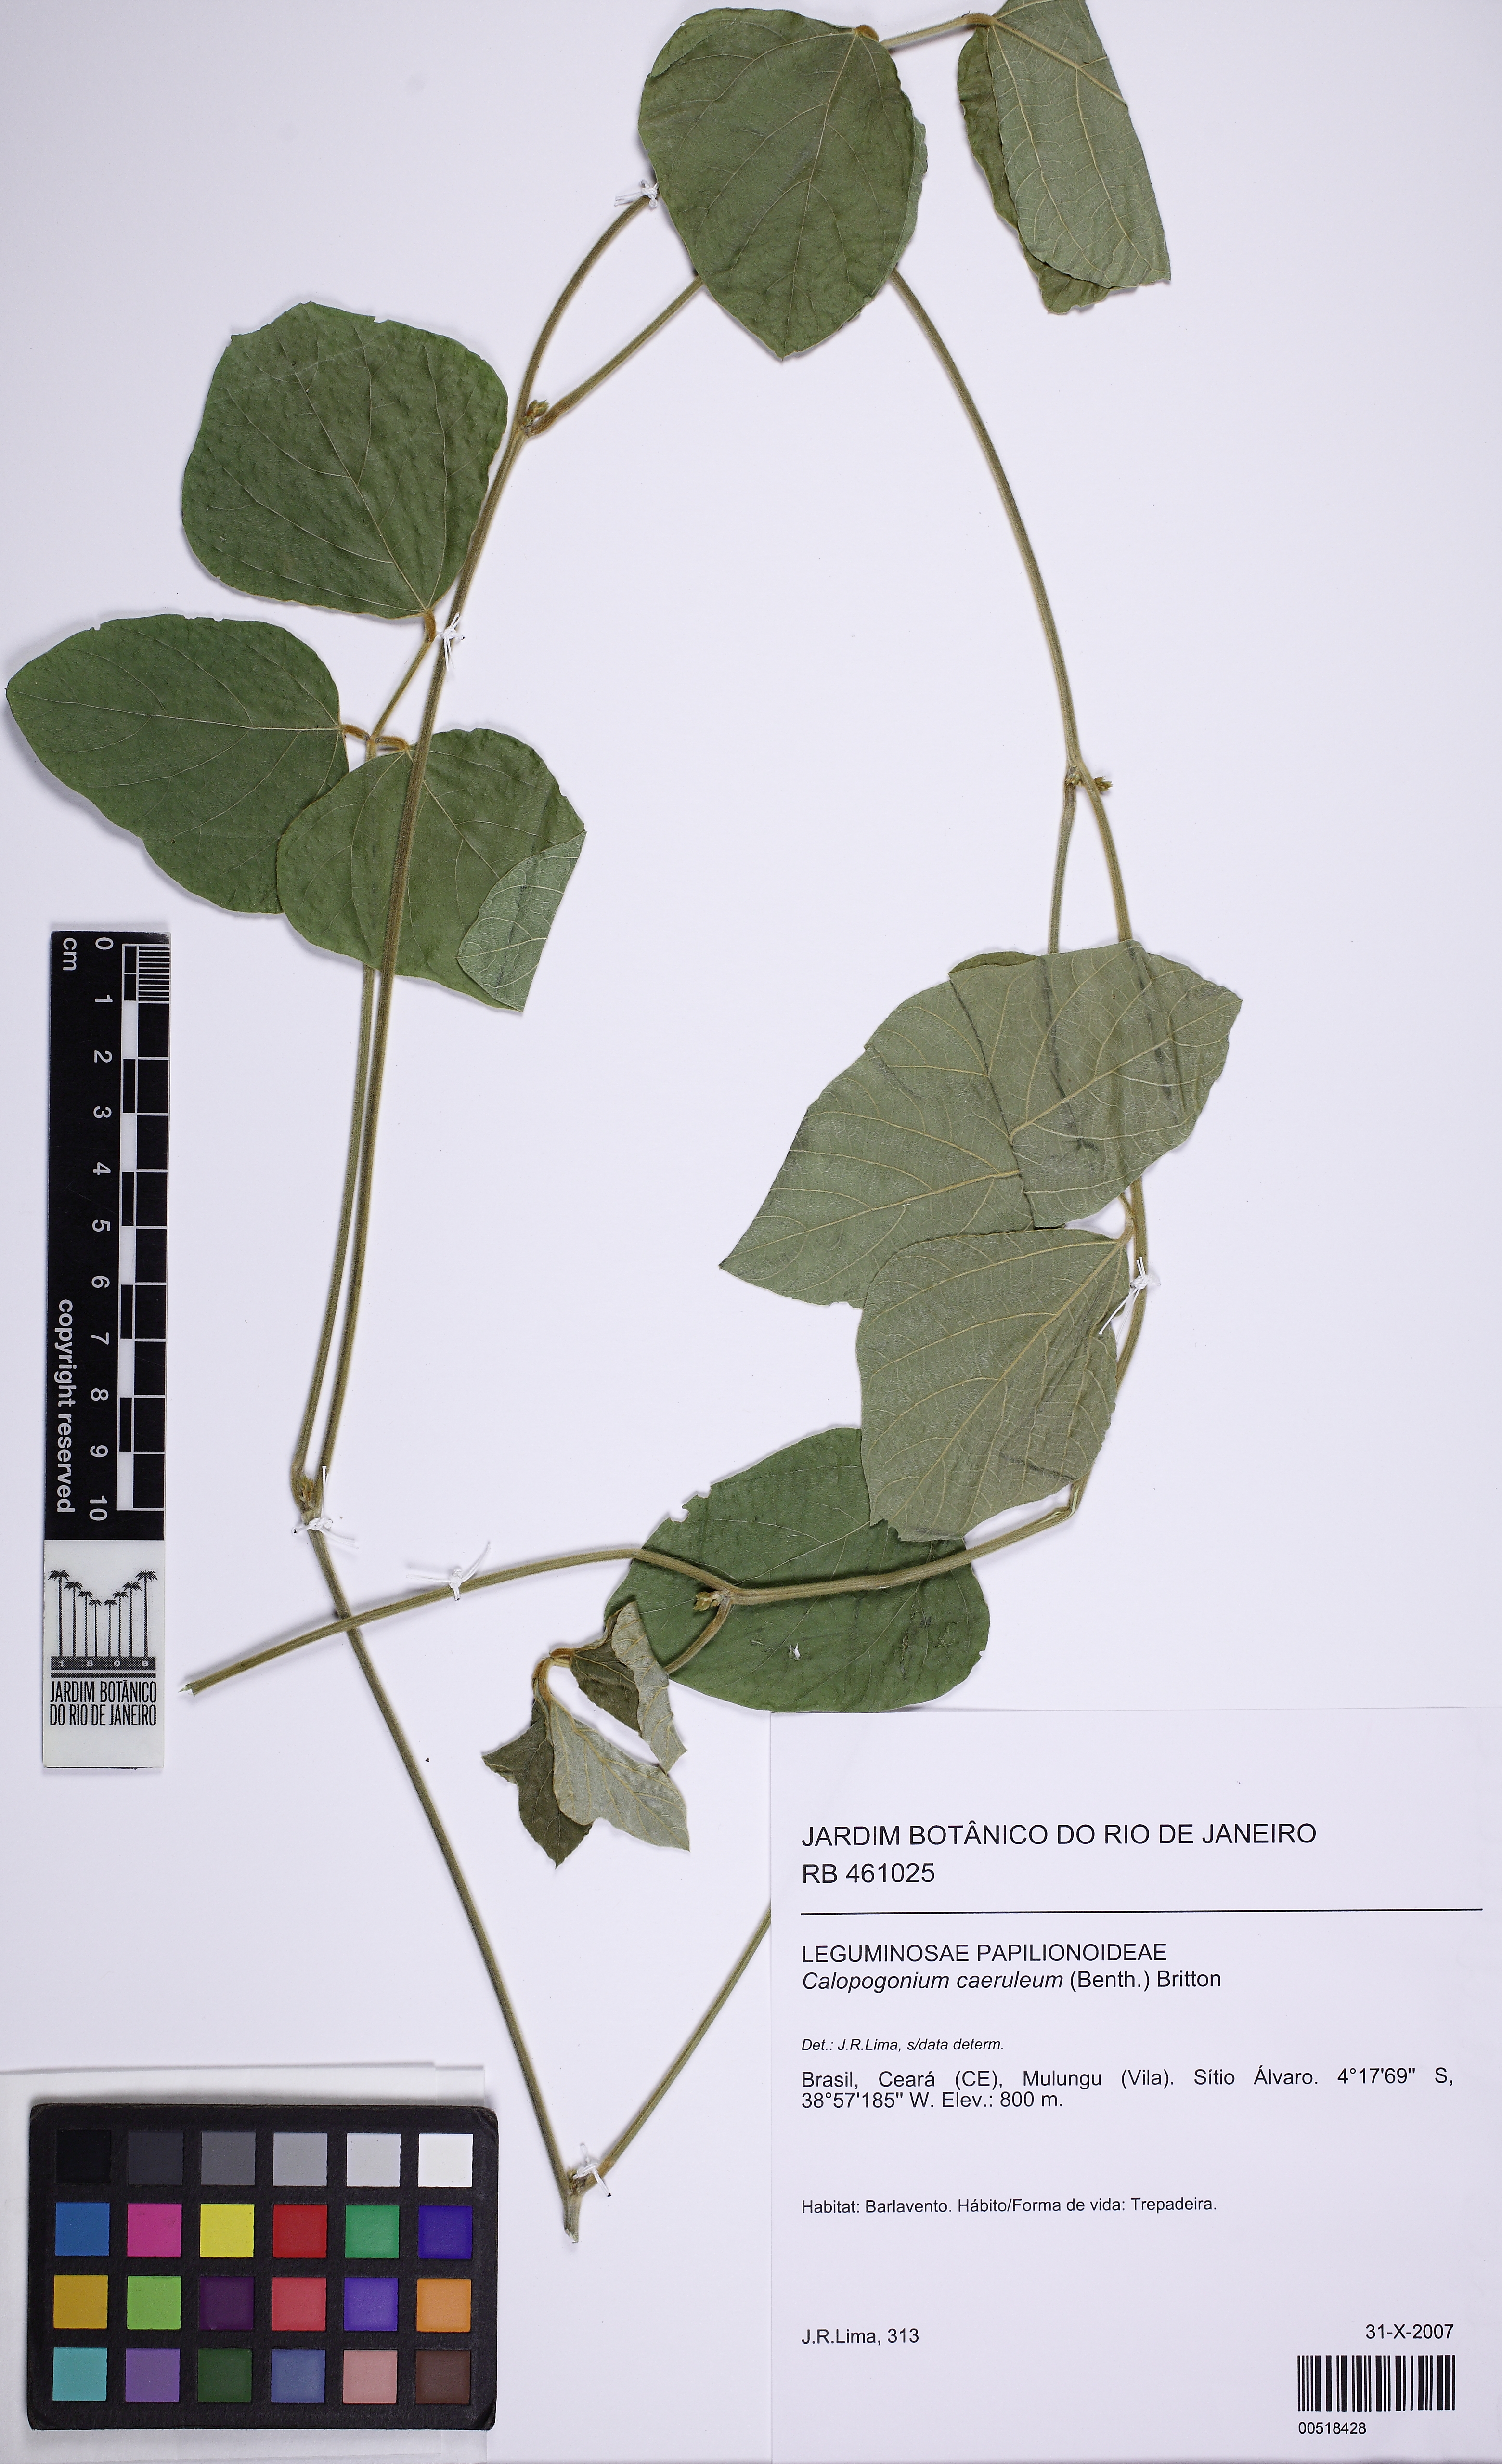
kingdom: Plantae
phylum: Tracheophyta
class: Magnoliopsida
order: Fabales
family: Fabaceae
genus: Calopogonium
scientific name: Calopogonium caeruleum
